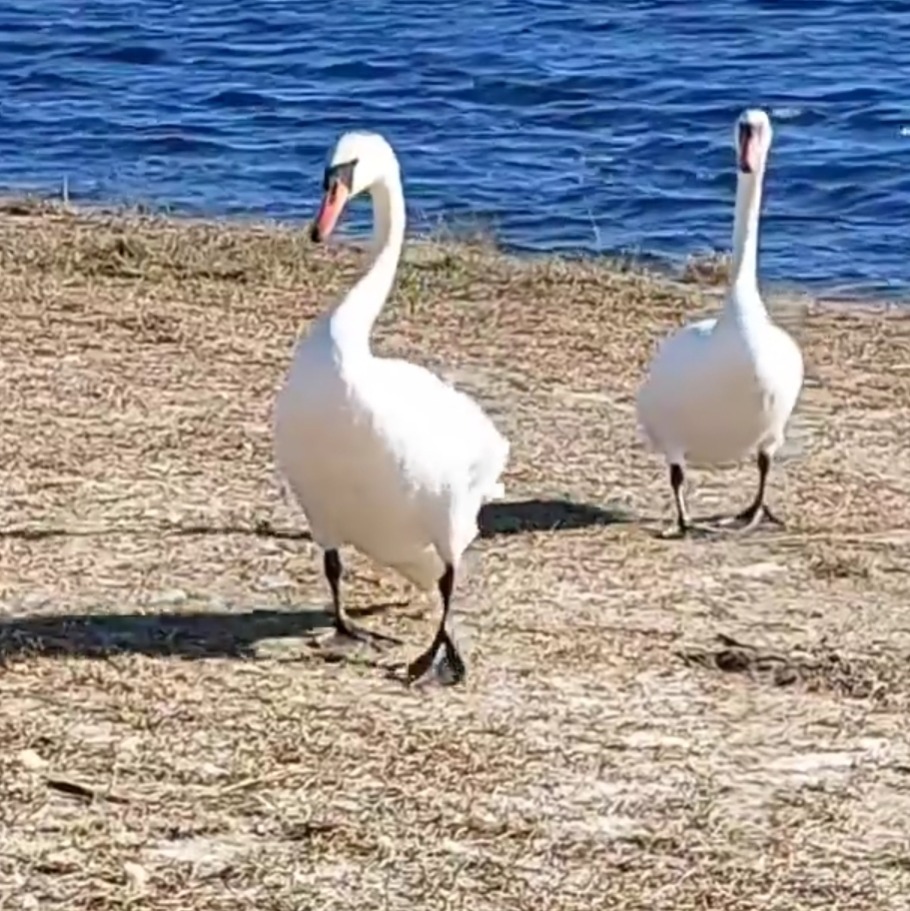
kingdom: Animalia
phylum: Chordata
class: Aves
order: Anseriformes
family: Anatidae
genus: Cygnus
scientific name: Cygnus olor
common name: Knopsvane
